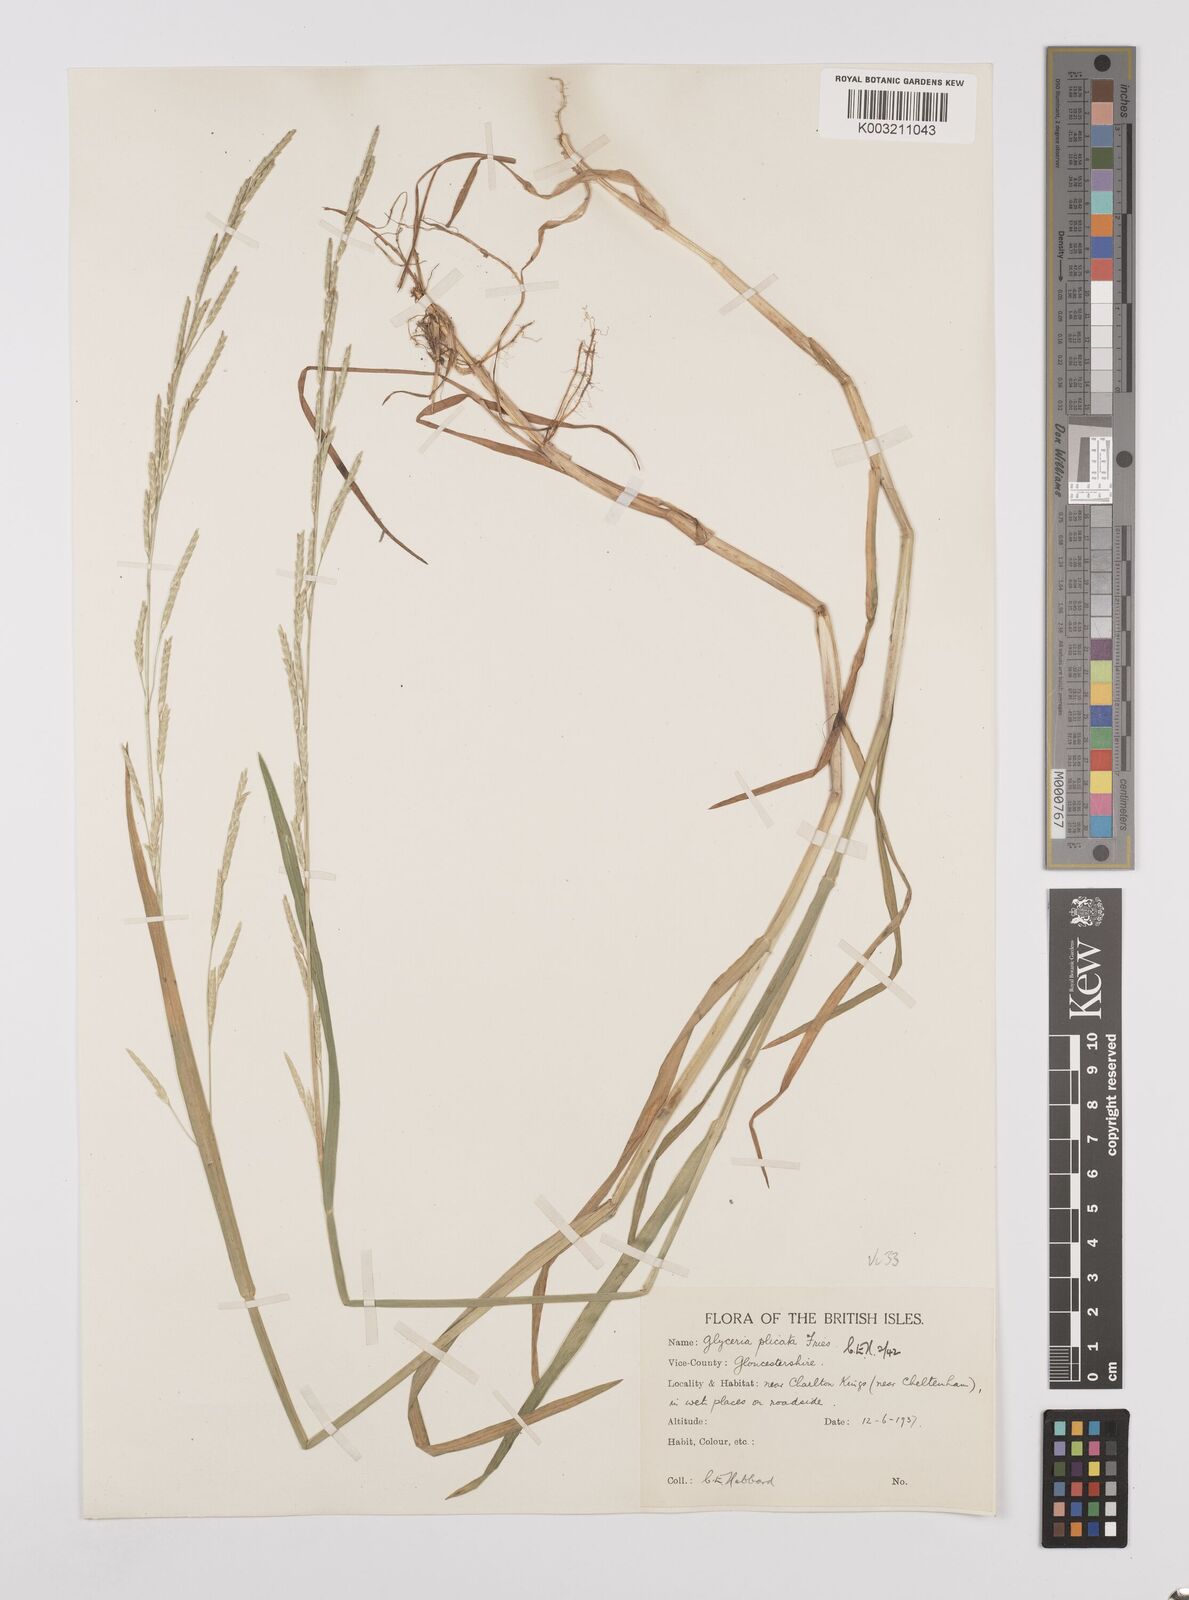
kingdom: Plantae
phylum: Tracheophyta
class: Liliopsida
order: Poales
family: Poaceae
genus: Glyceria
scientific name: Glyceria notata
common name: Plicate sweet-grass
